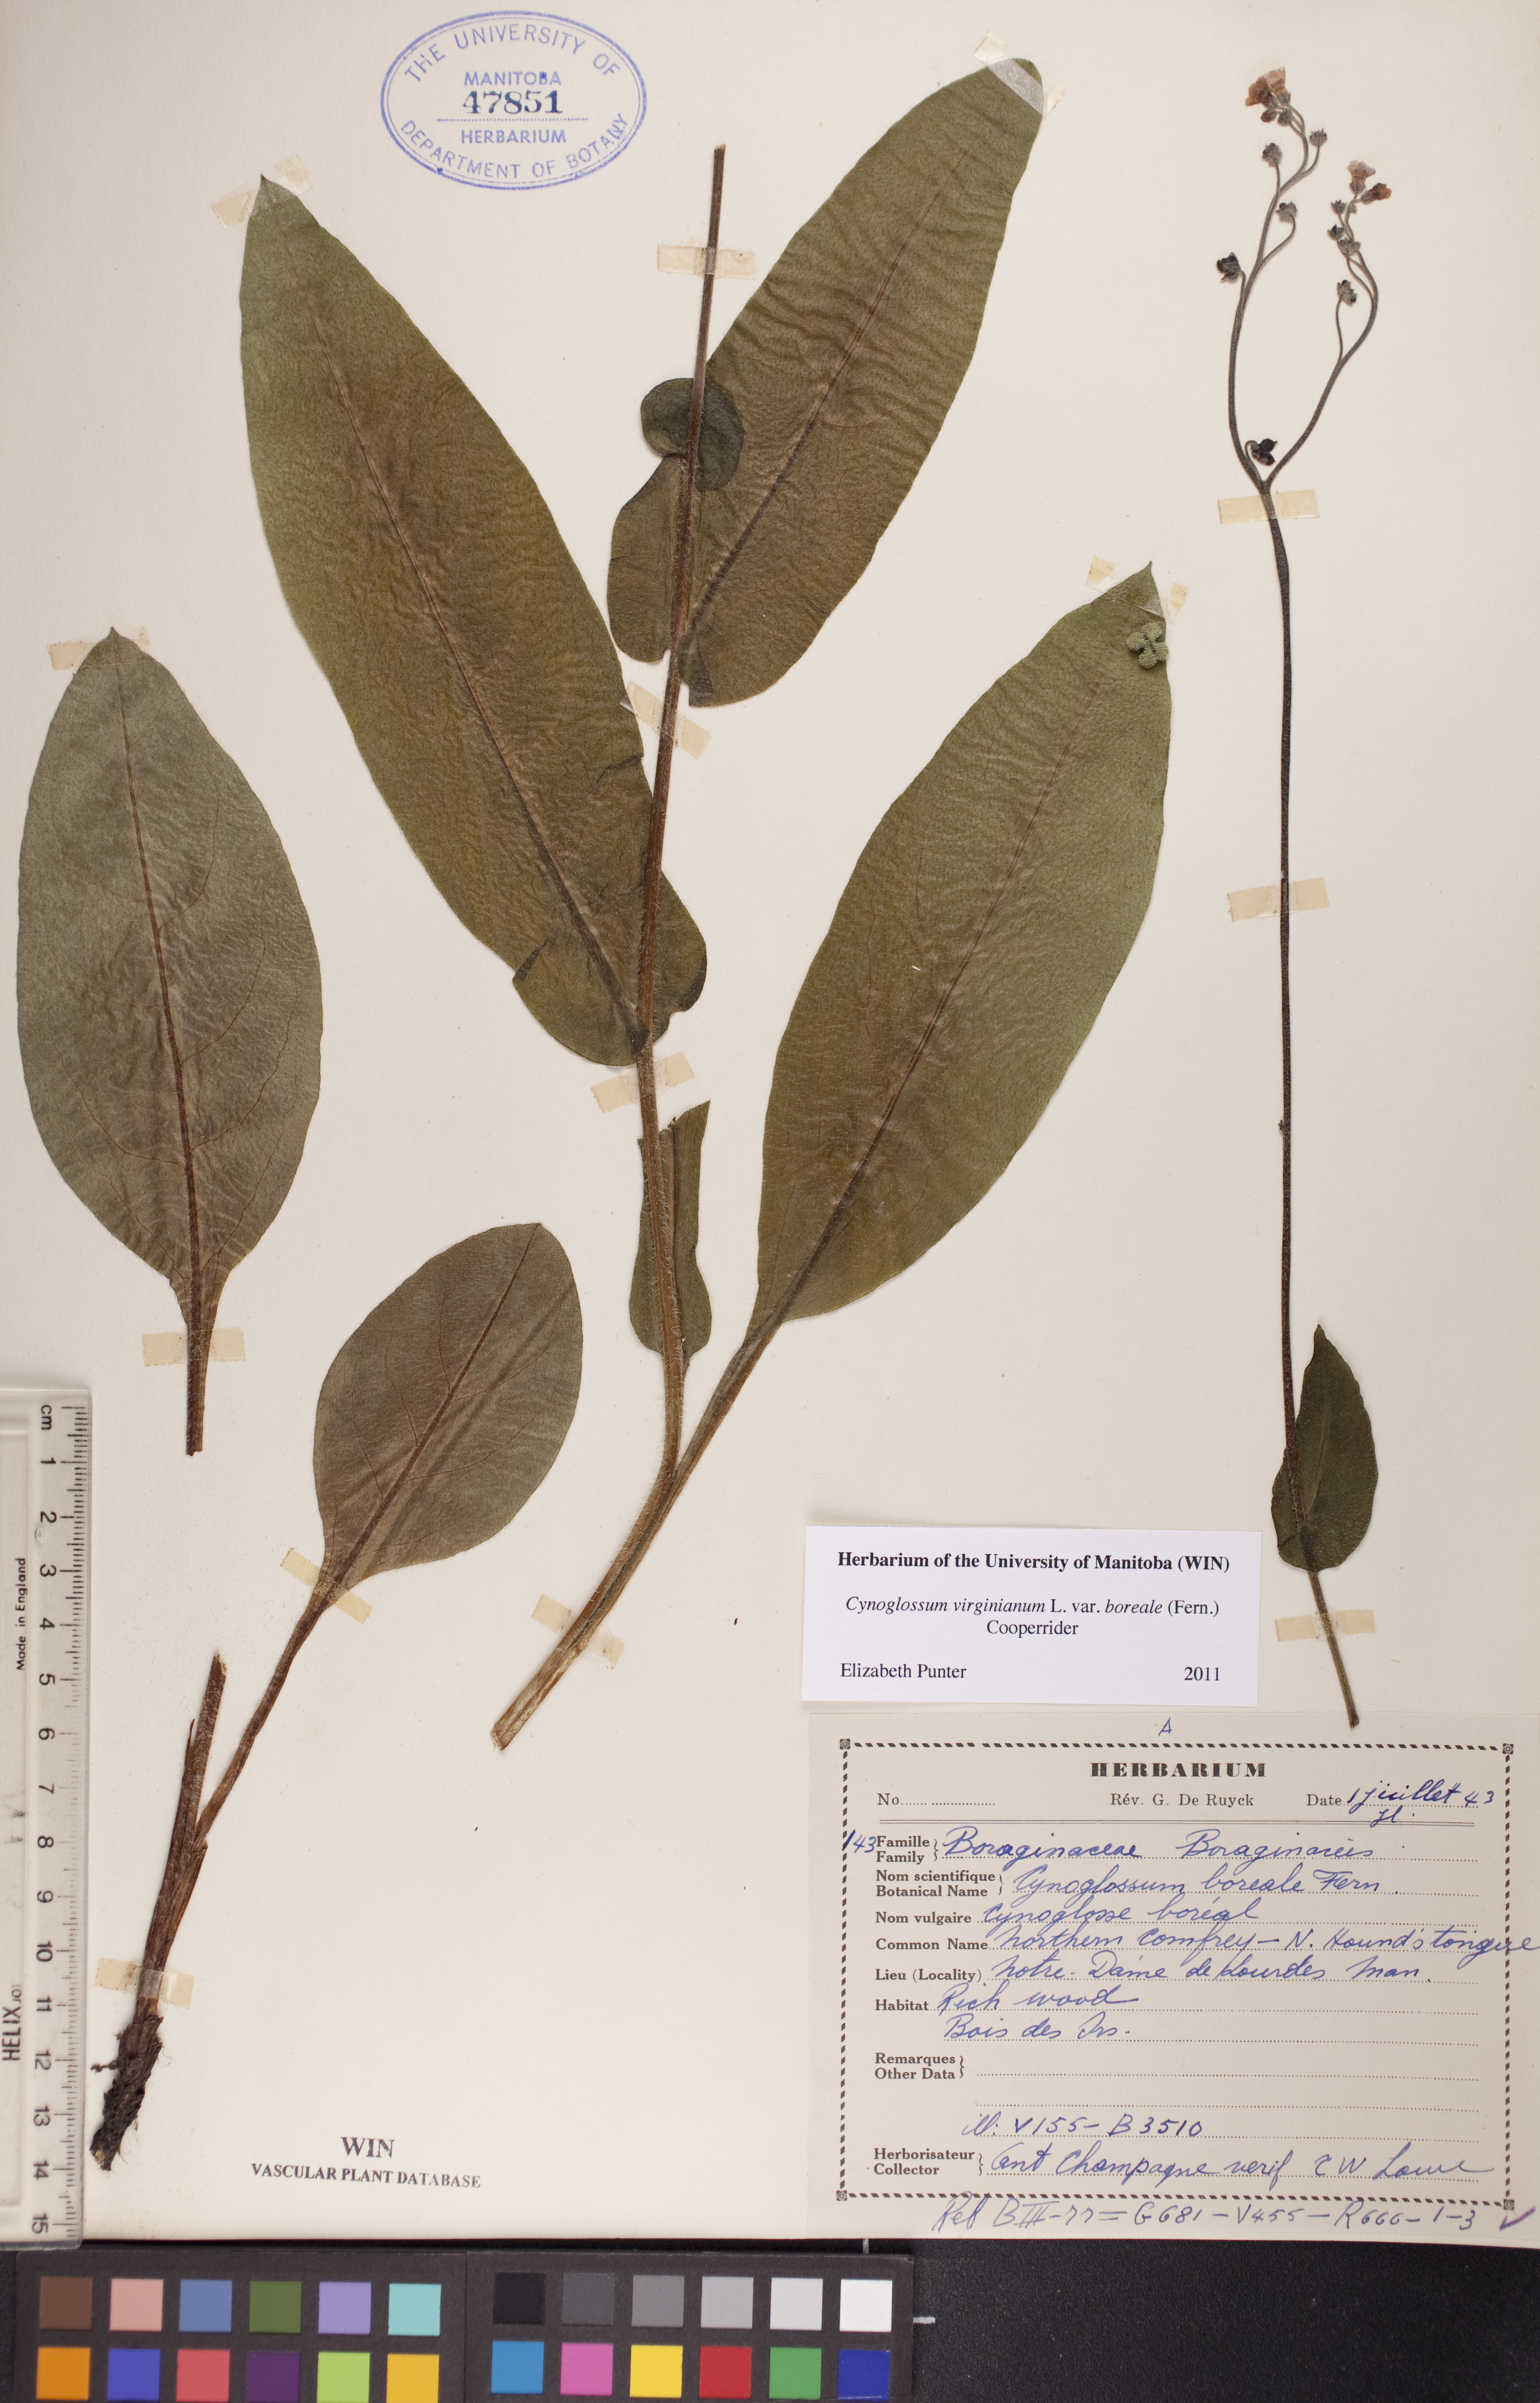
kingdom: Plantae
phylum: Tracheophyta
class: Magnoliopsida
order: Boraginales
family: Boraginaceae
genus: Andersonglossum
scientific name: Andersonglossum boreale
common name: Northern hound's-tongue
